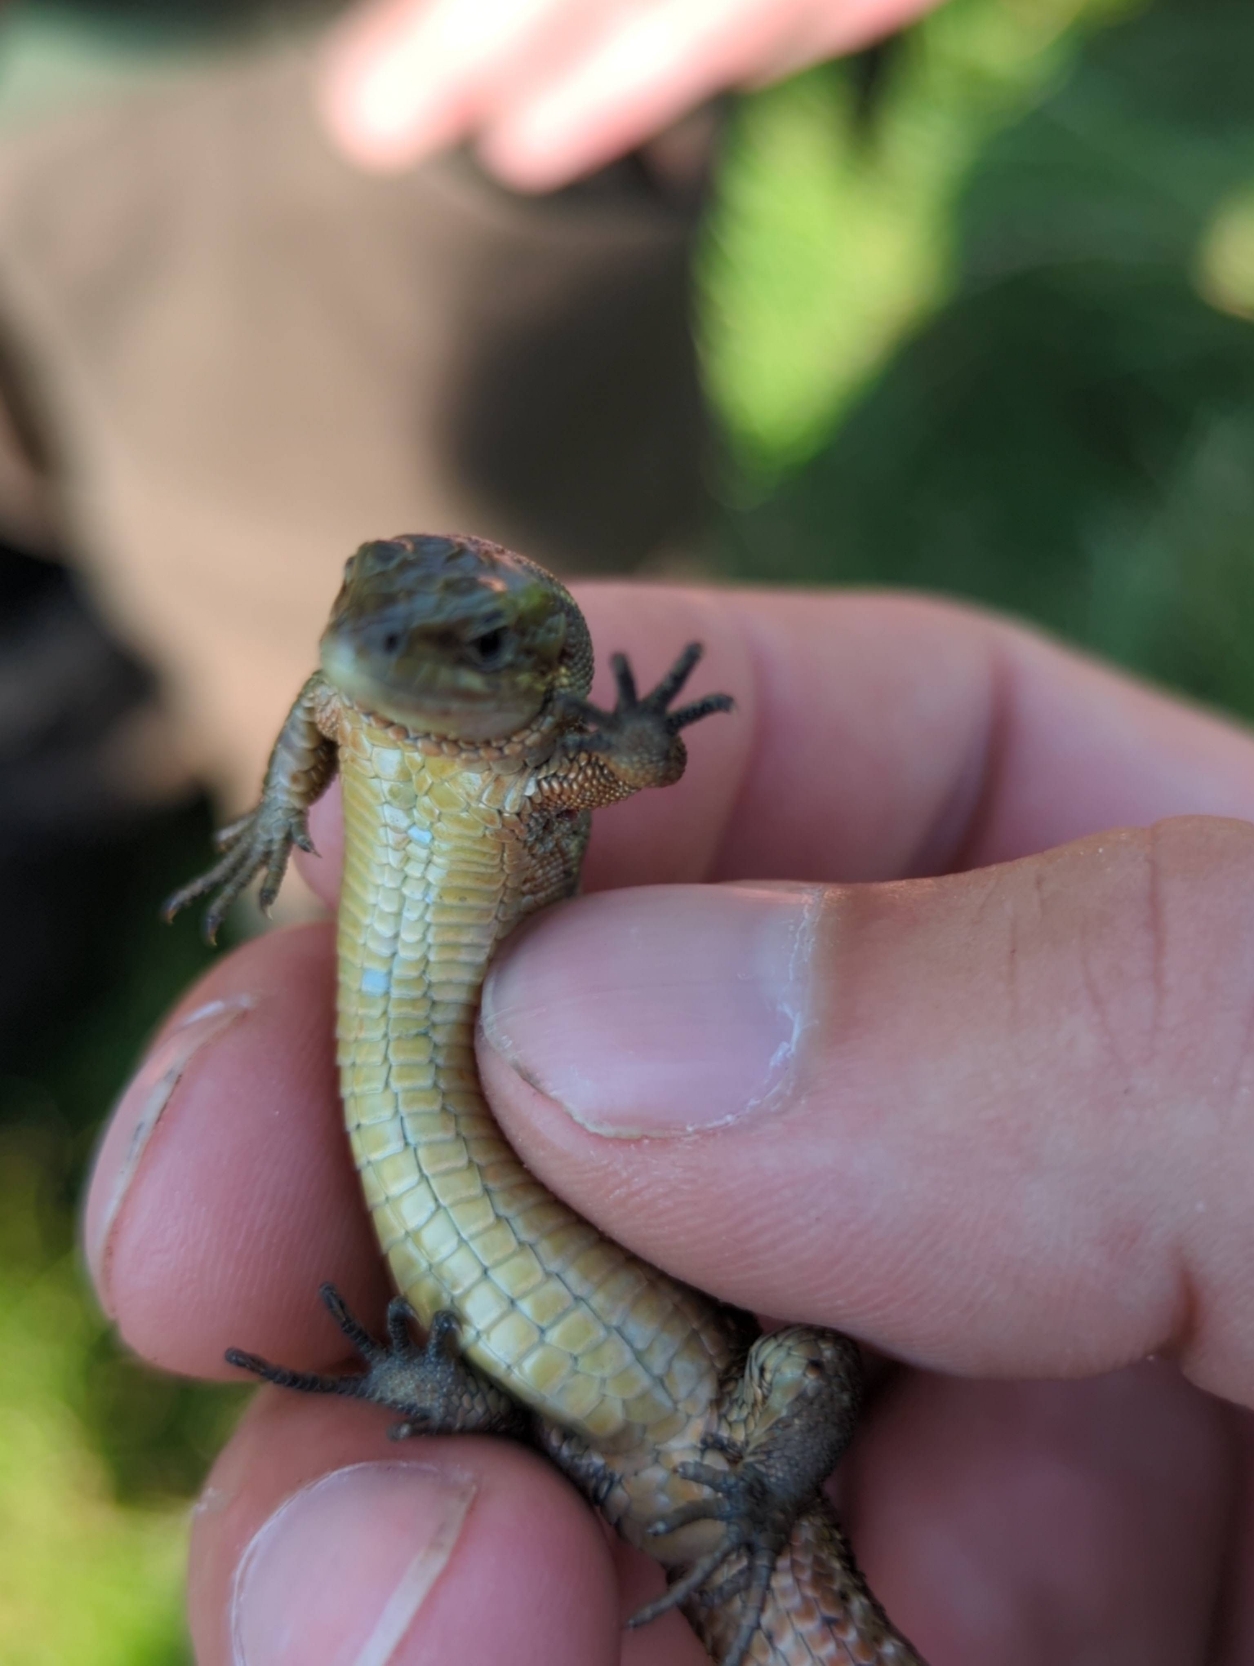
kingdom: Animalia
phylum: Chordata
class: Squamata
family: Lacertidae
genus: Zootoca
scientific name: Zootoca vivipara
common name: Skovfirben
